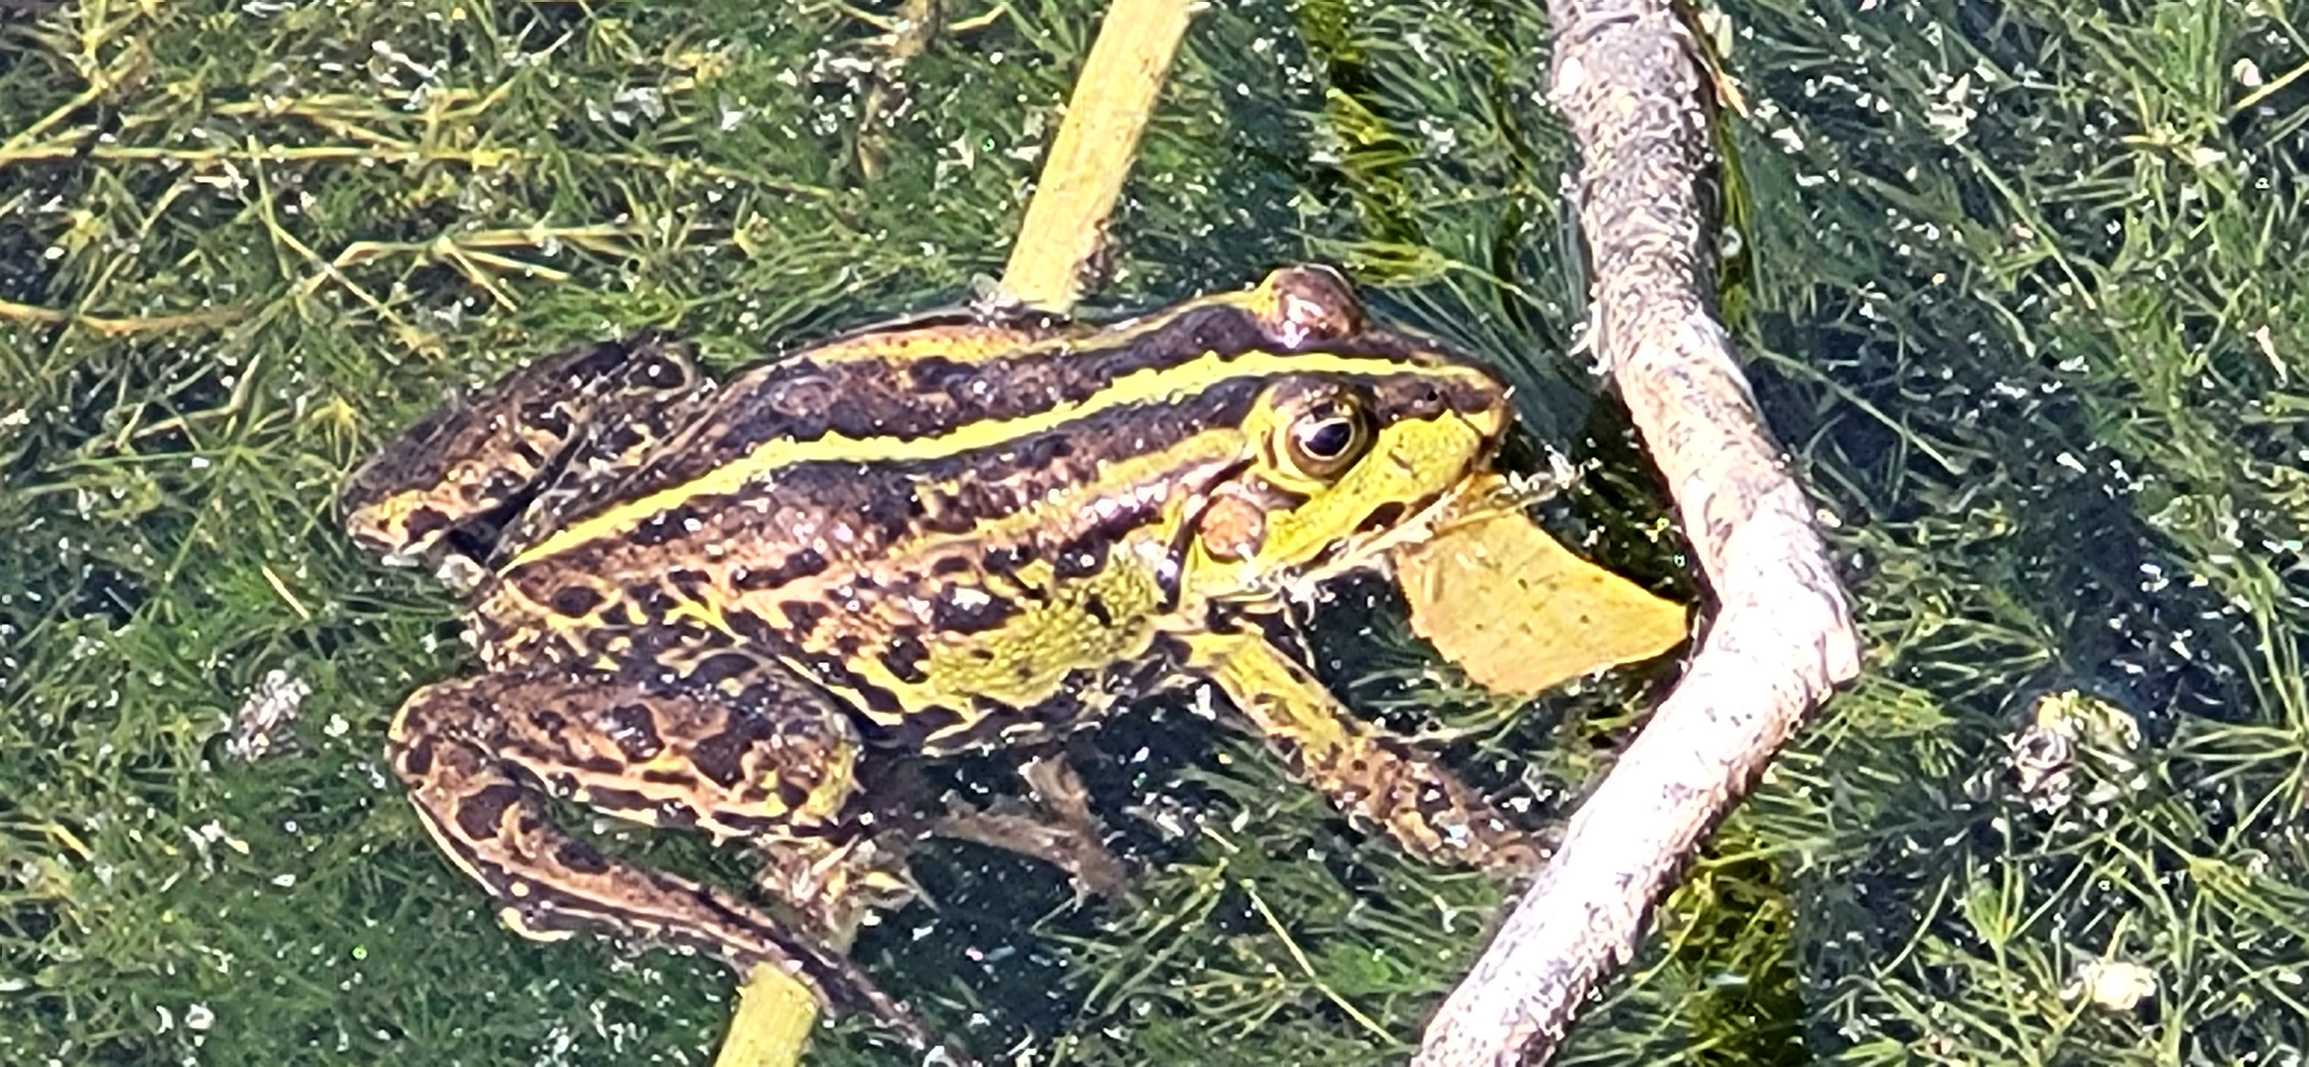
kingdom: Animalia
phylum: Chordata
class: Amphibia
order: Anura
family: Ranidae
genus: Pelophylax
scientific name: Pelophylax lessonae
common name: Grøn frø
